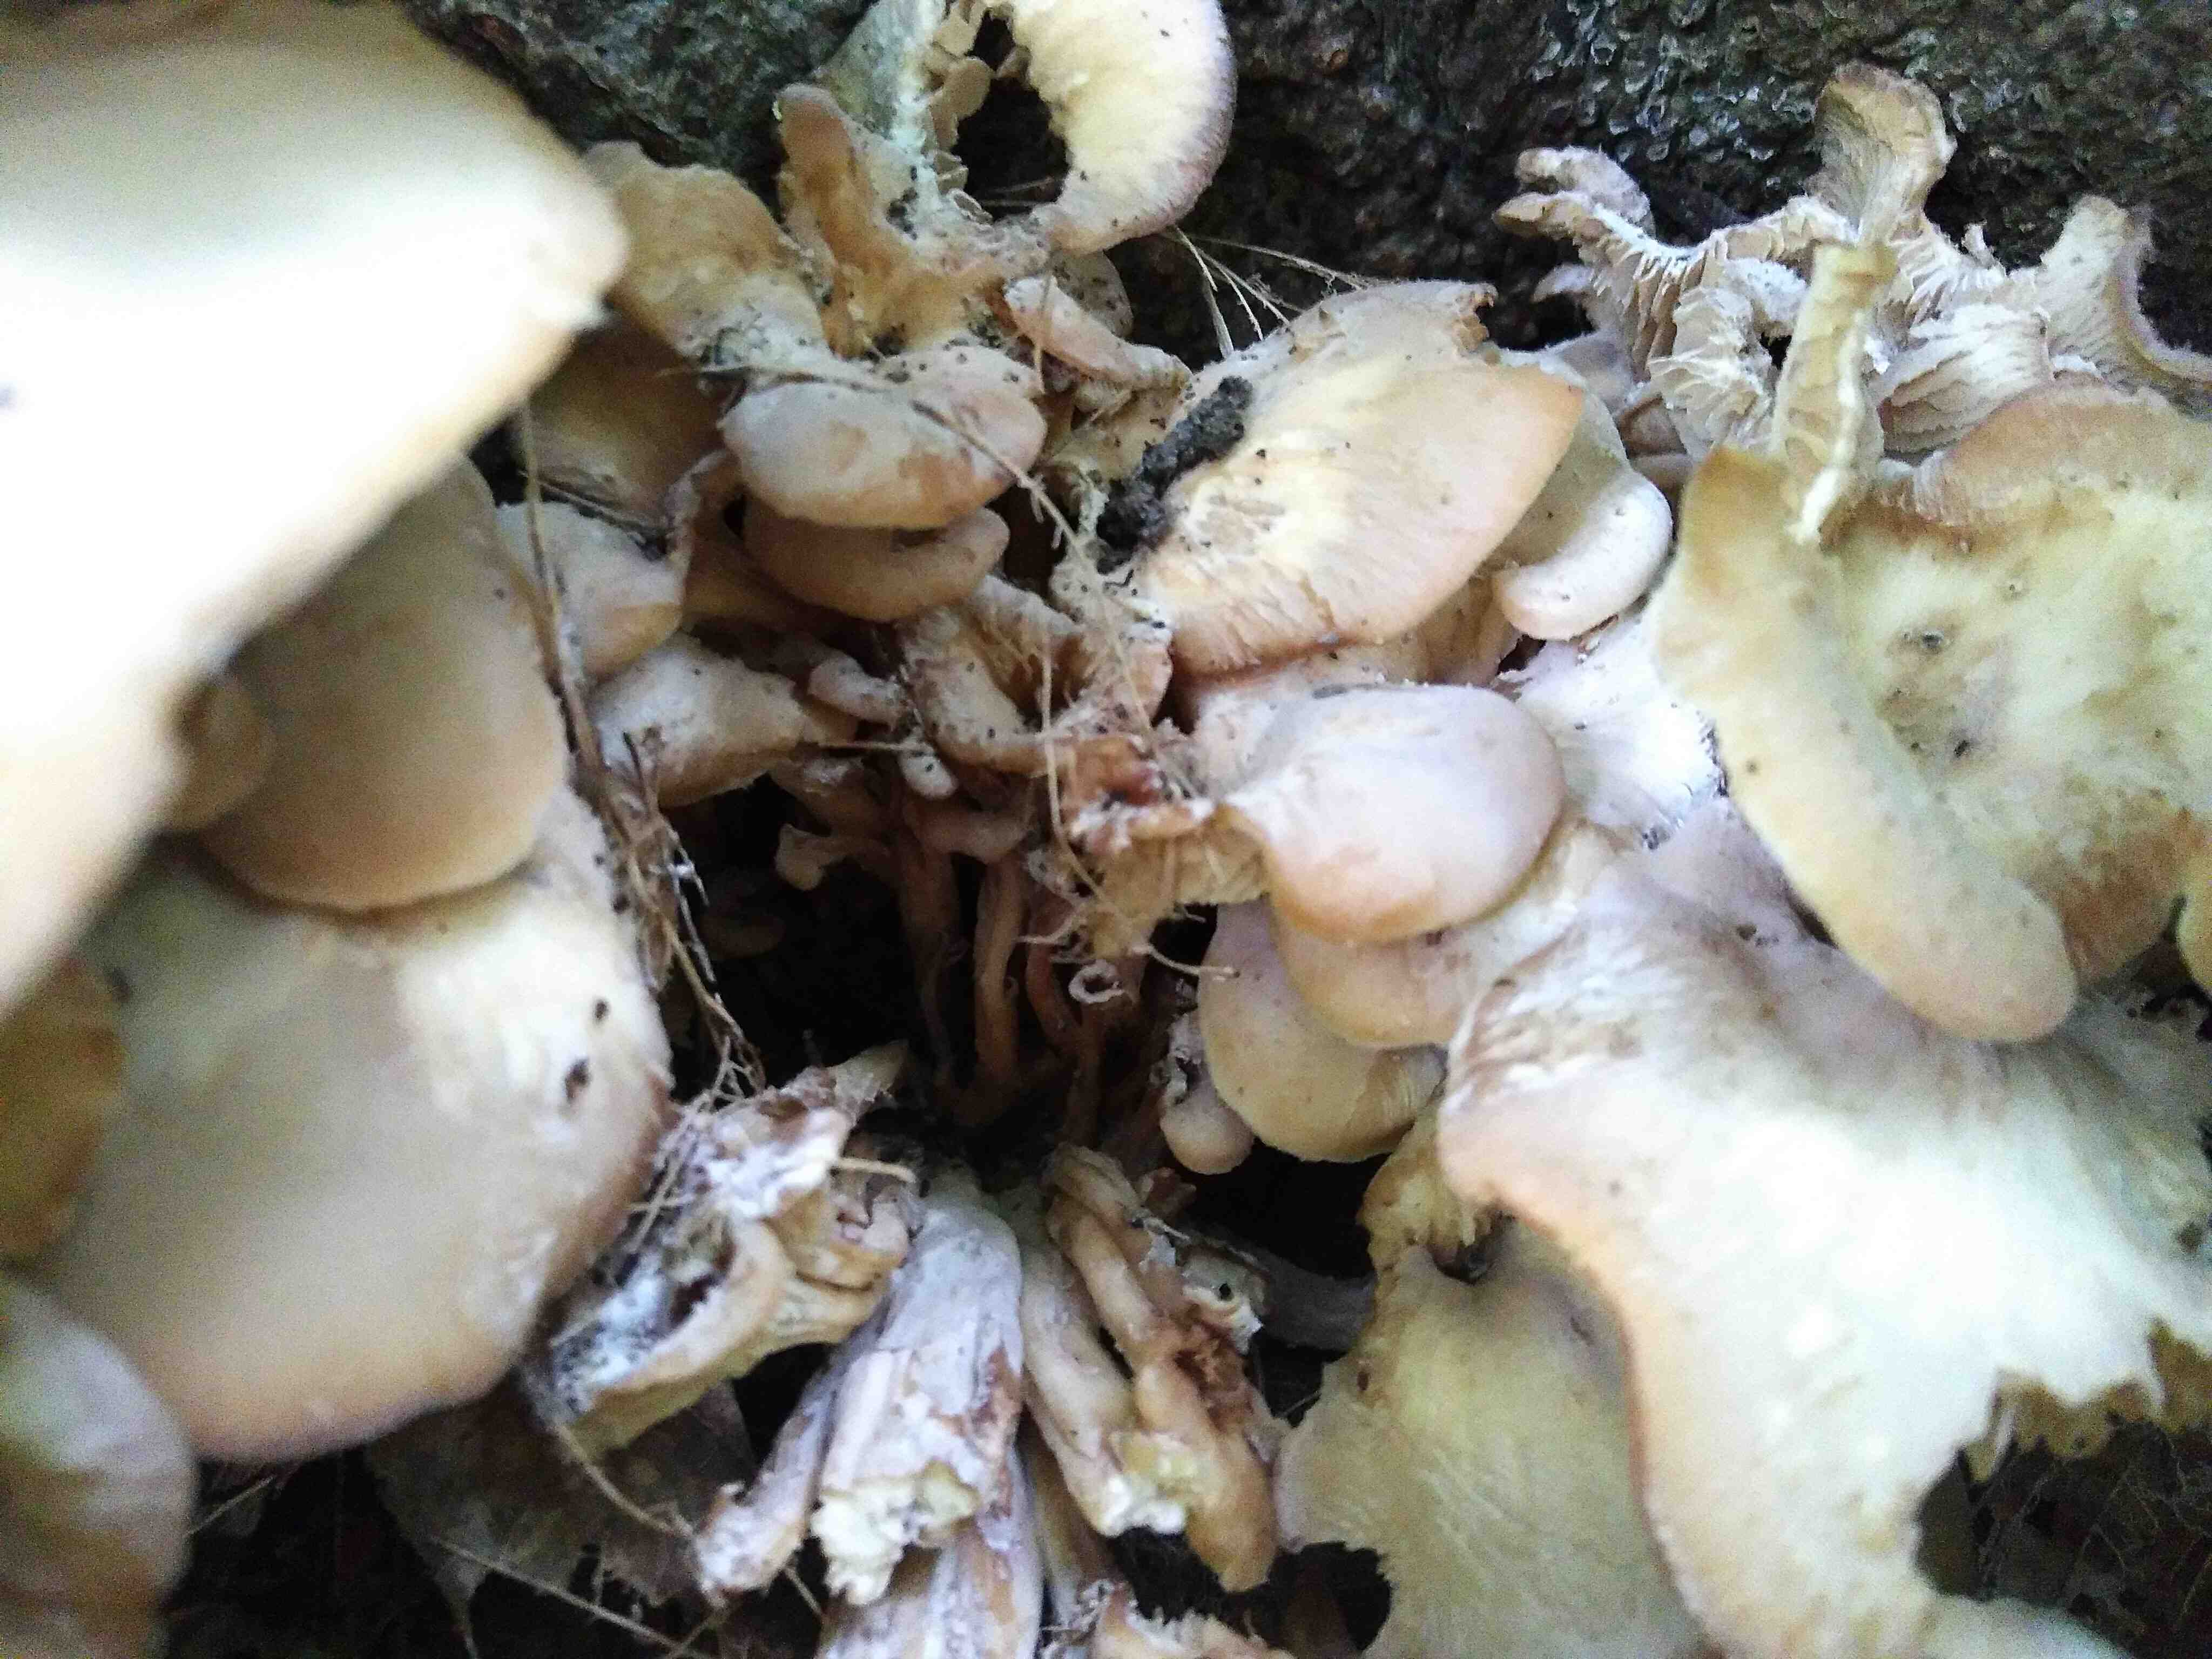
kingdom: Fungi
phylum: Basidiomycota
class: Agaricomycetes
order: Russulales
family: Auriscalpiaceae
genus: Lentinellus
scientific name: Lentinellus cochleatus
